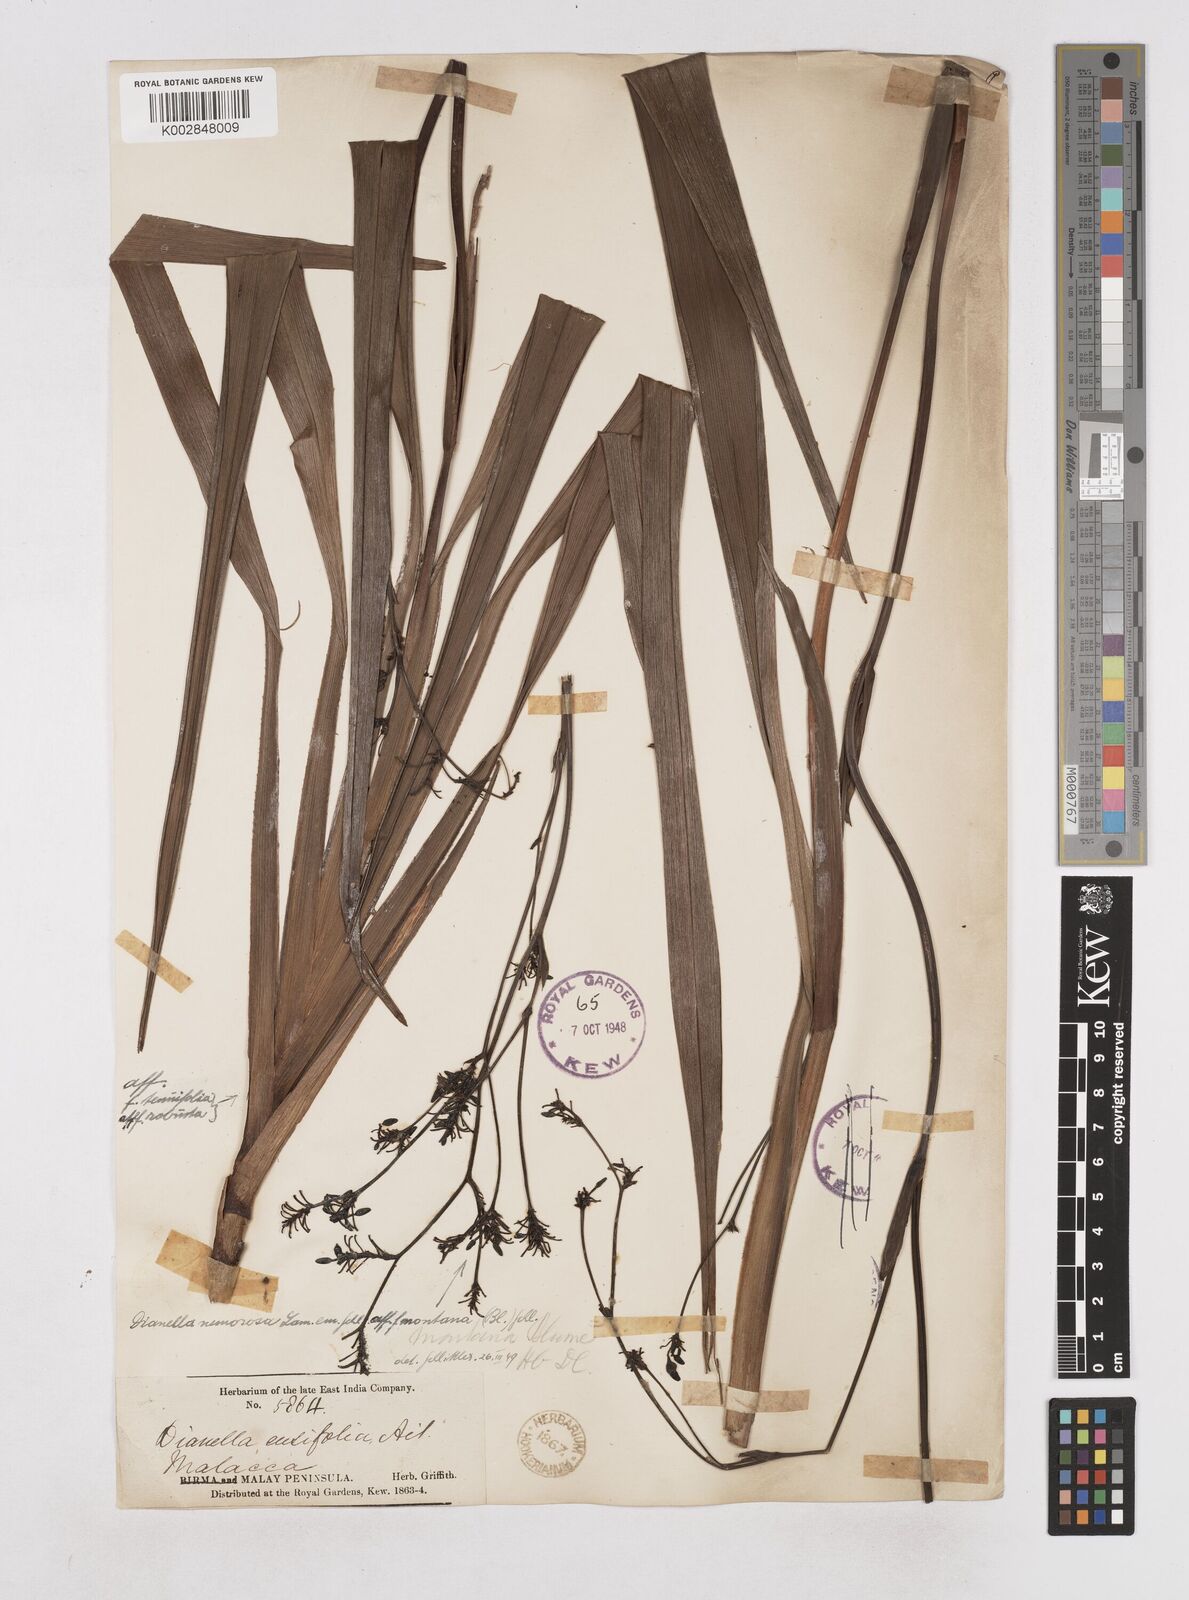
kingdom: Plantae
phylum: Tracheophyta
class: Liliopsida
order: Asparagales
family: Asphodelaceae
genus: Dianella
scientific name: Dianella ensifolia
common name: New zealand lilyplant
